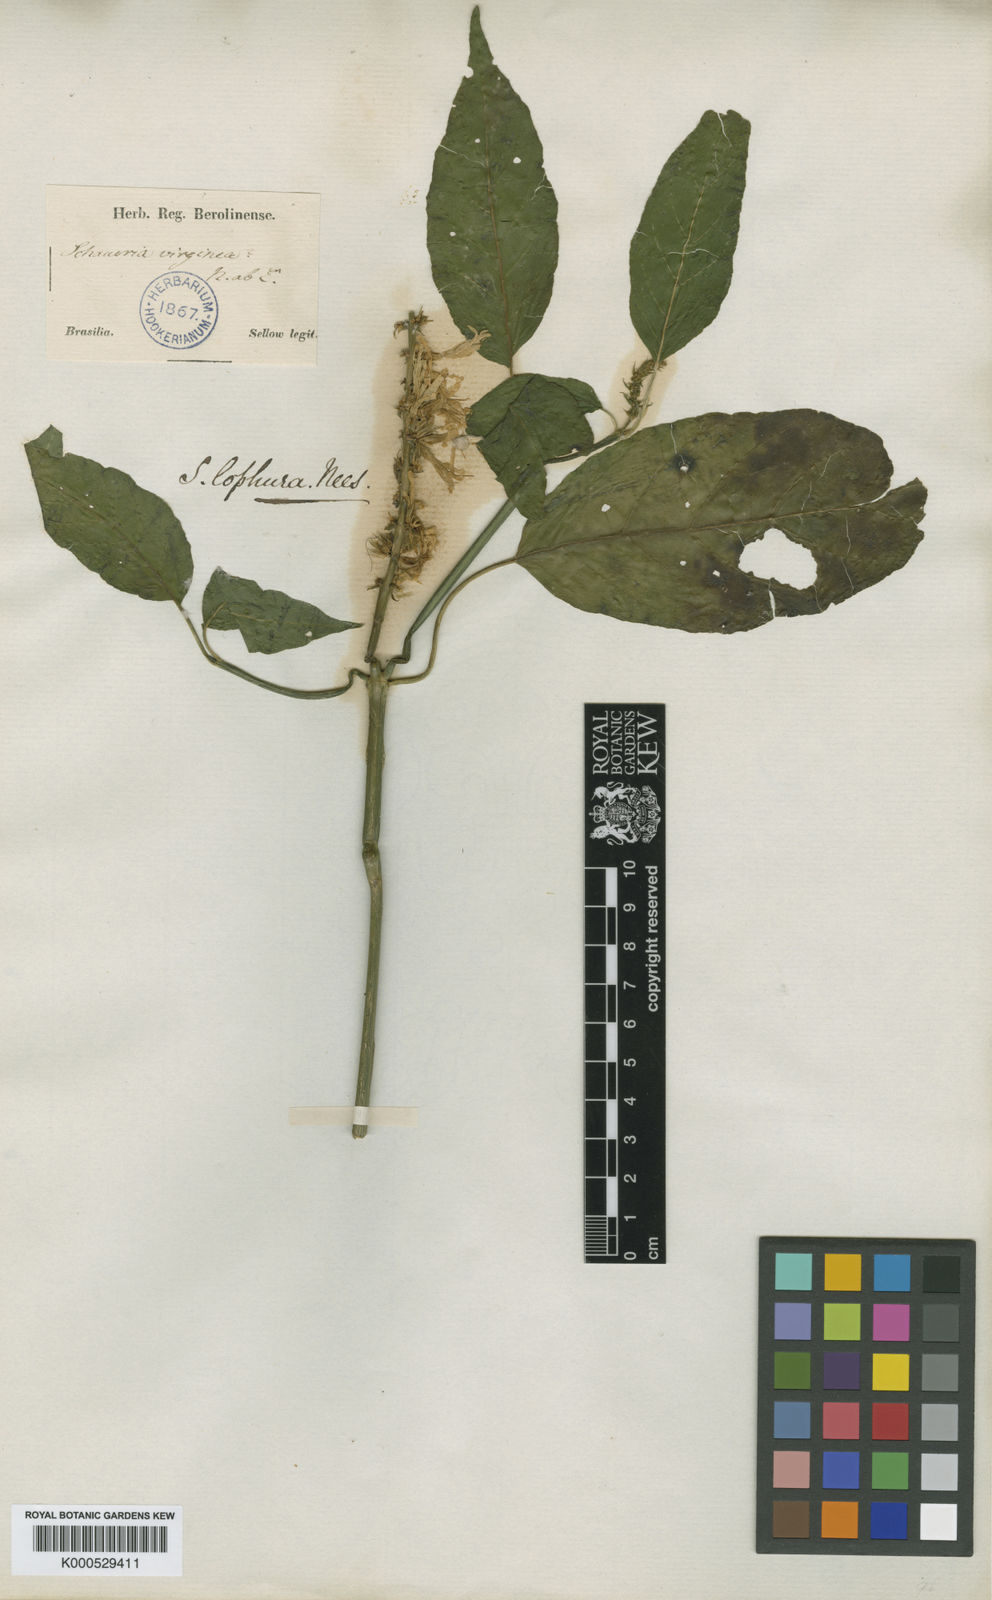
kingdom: Plantae
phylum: Tracheophyta
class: Magnoliopsida
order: Lamiales
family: Acanthaceae
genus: Schaueria
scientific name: Schaueria litoralis
